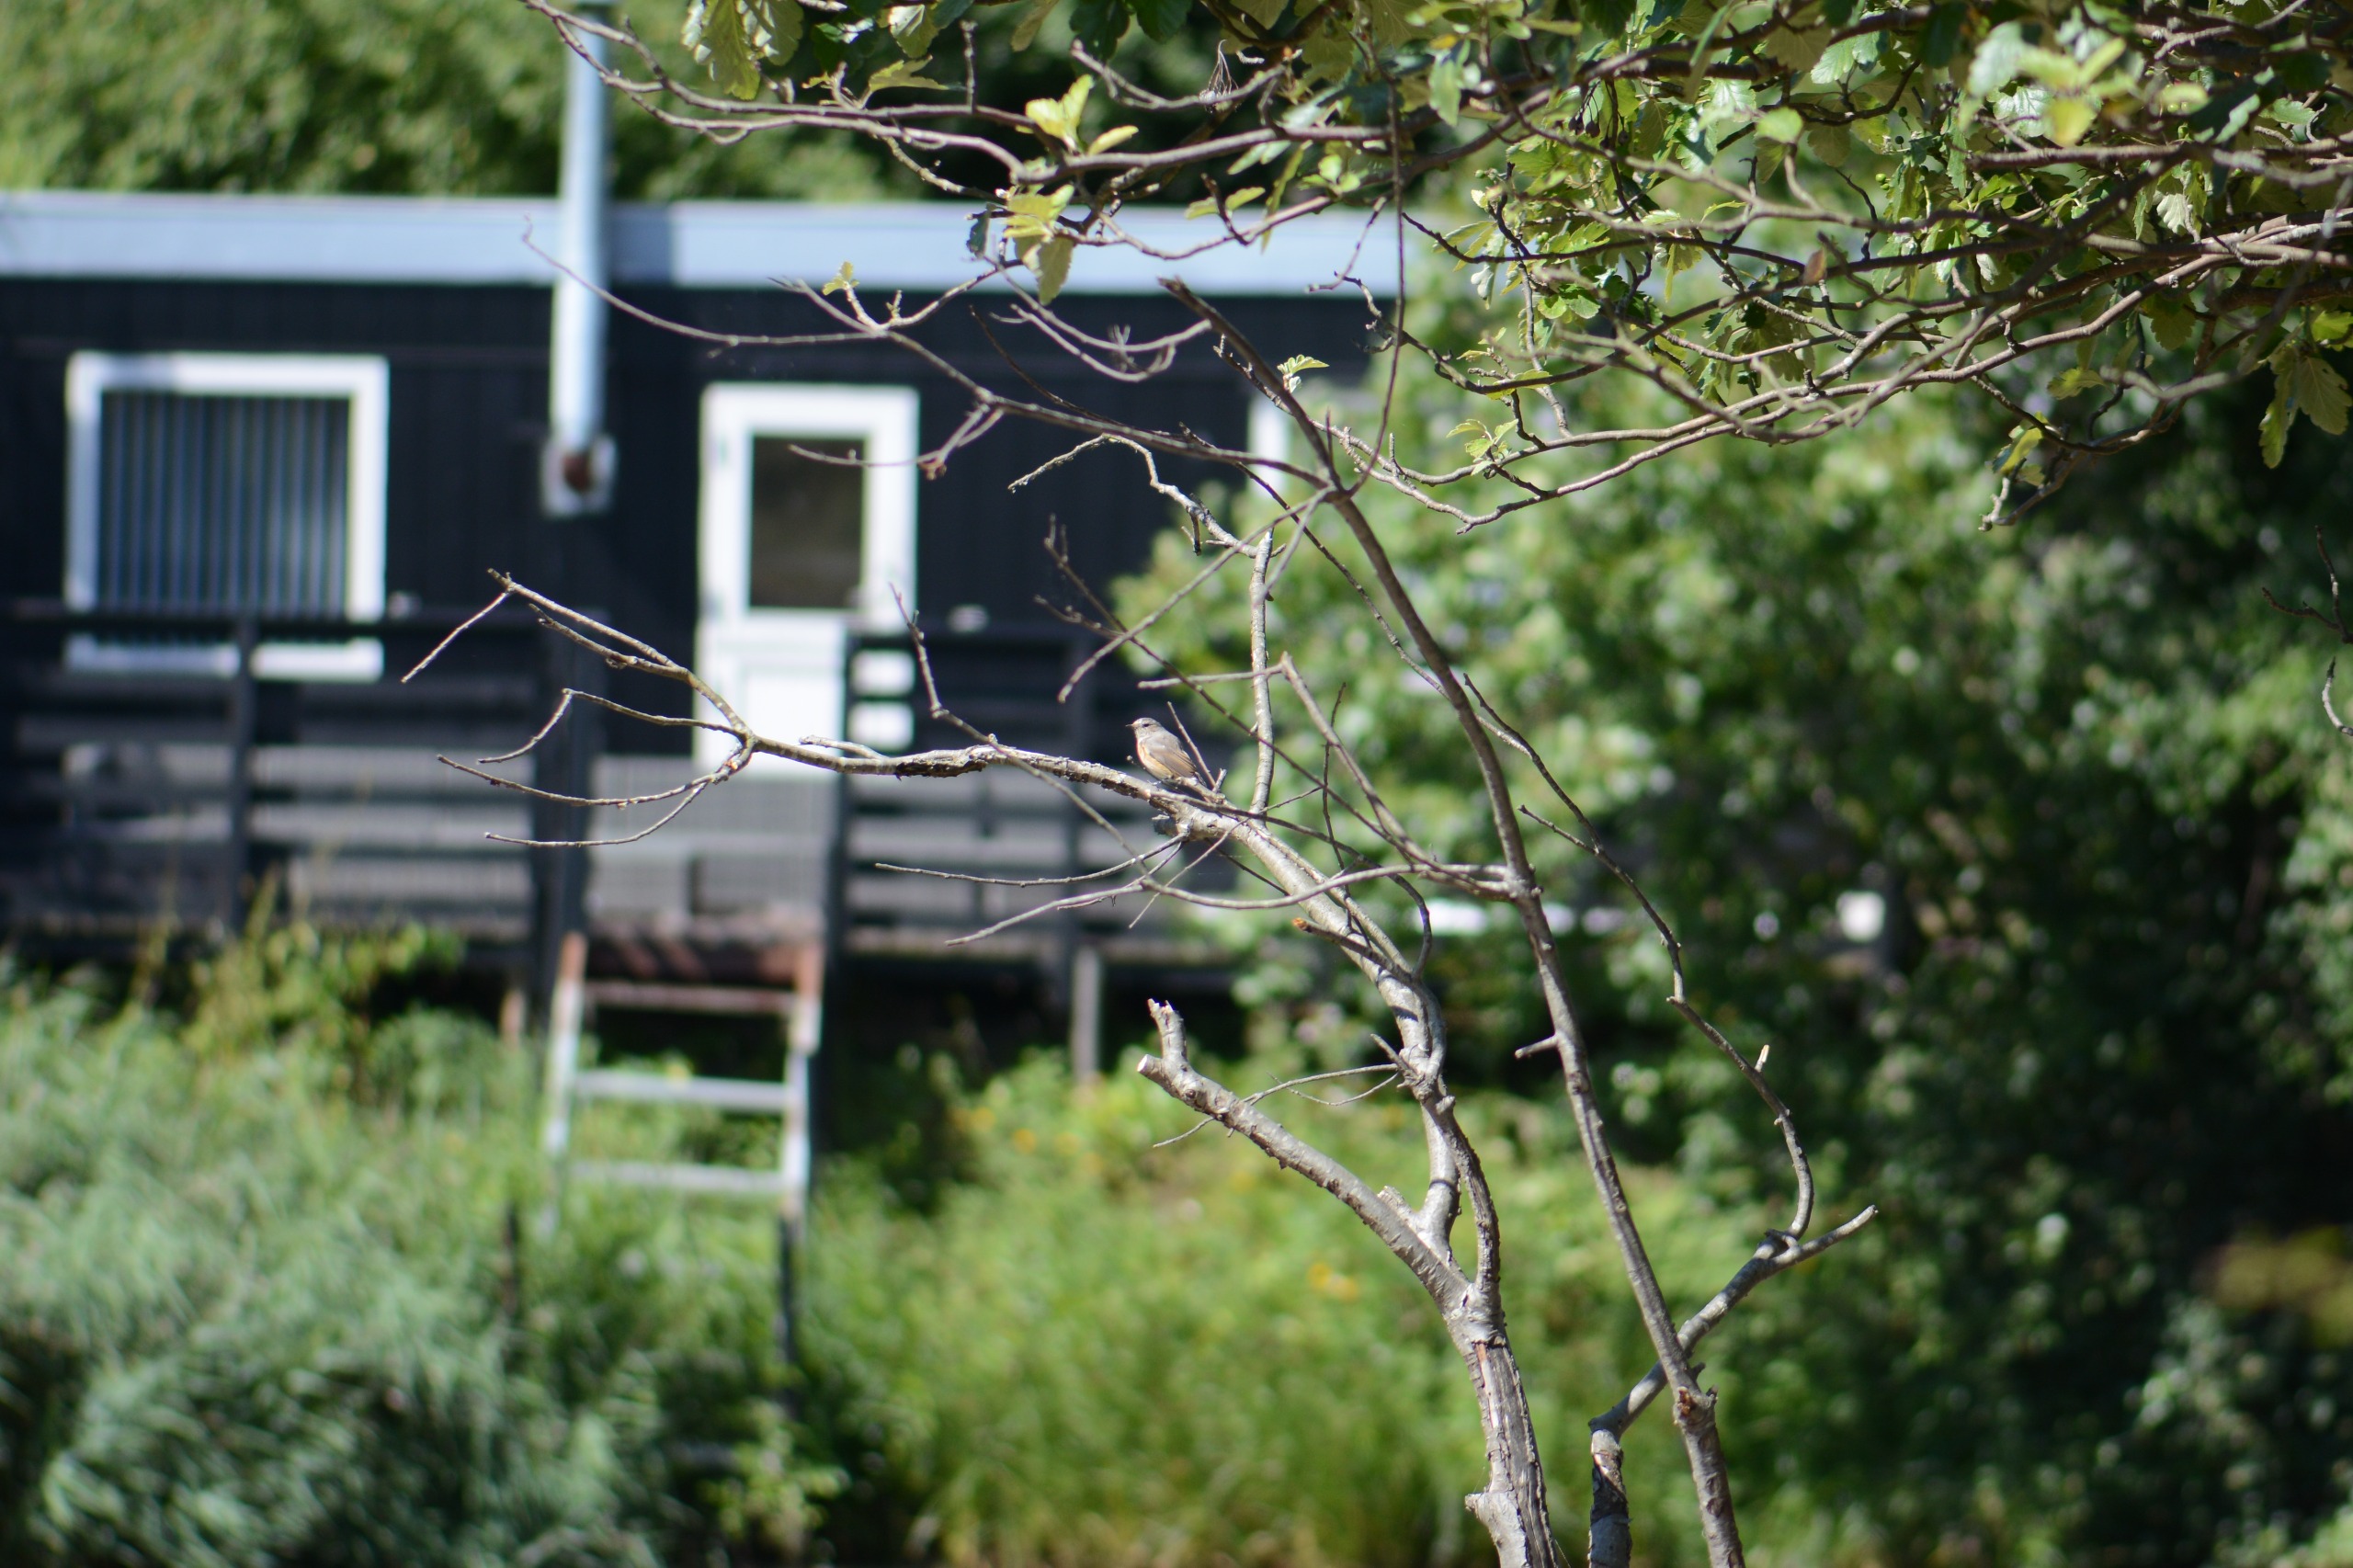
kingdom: Animalia
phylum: Chordata
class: Aves
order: Passeriformes
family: Muscicapidae
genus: Phoenicurus
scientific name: Phoenicurus phoenicurus
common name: Rødstjert
